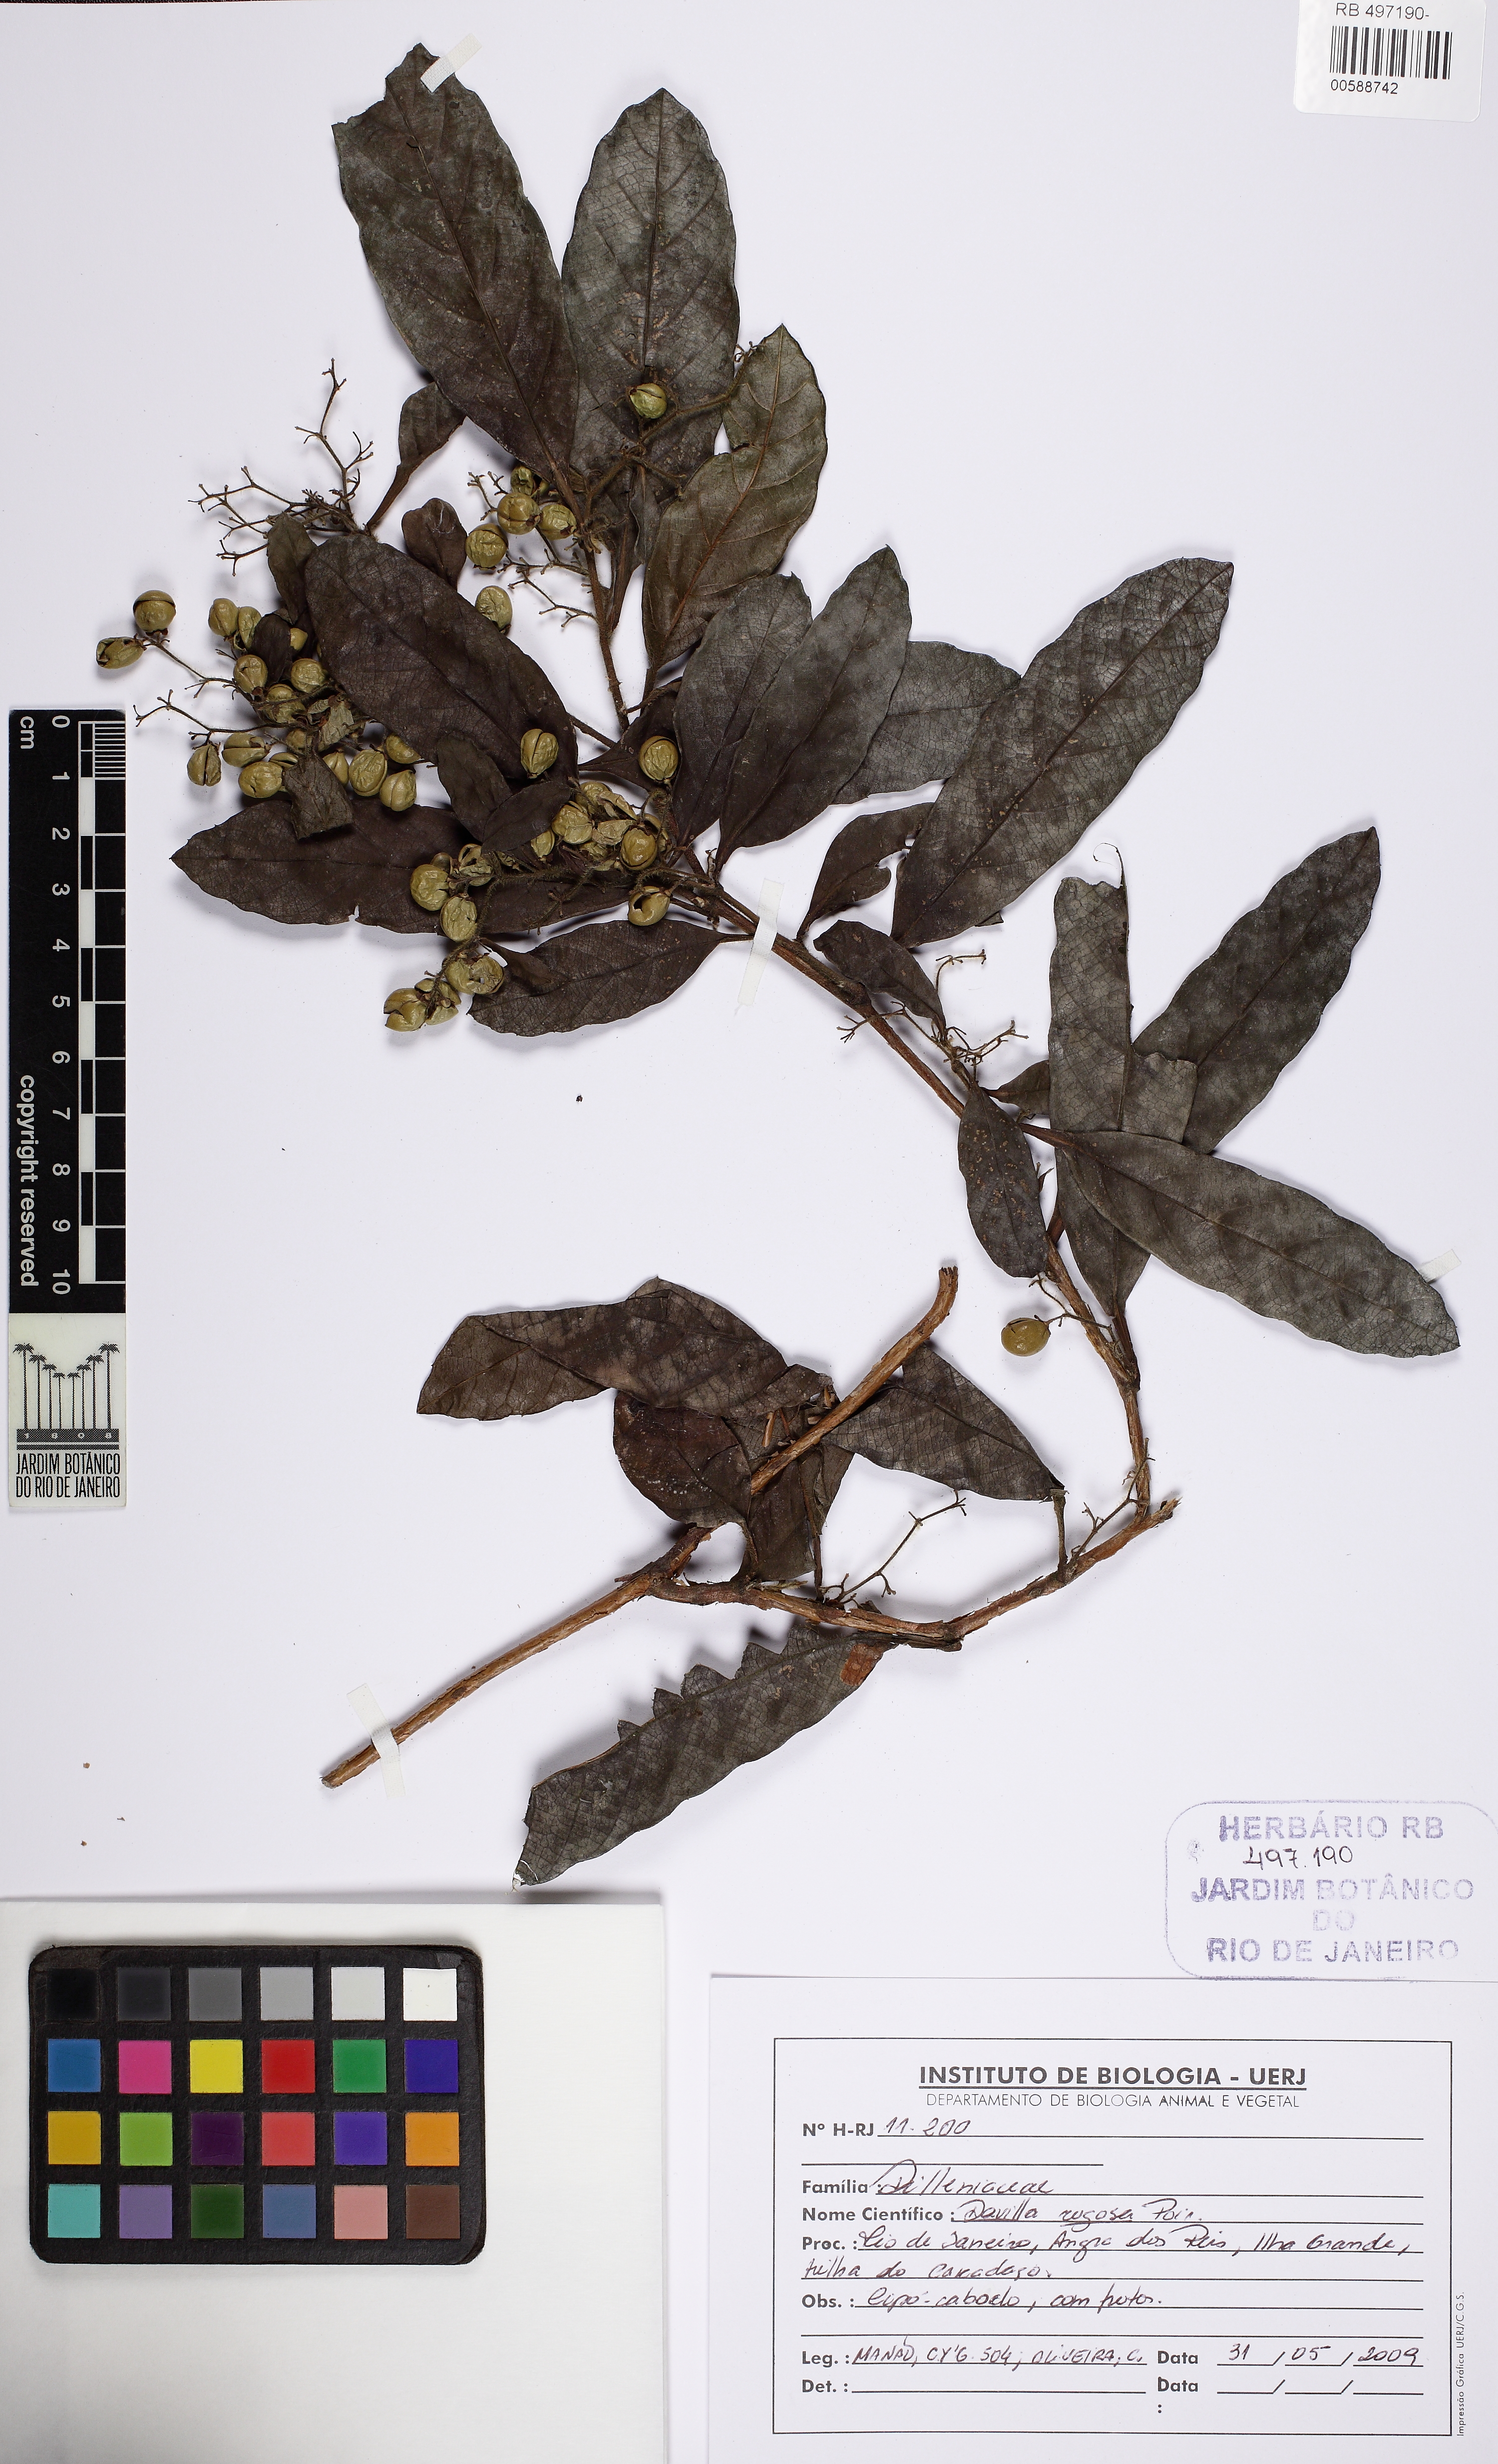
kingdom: Plantae
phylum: Tracheophyta
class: Magnoliopsida
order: Dilleniales
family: Dilleniaceae
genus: Davilla
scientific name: Davilla rugosa
